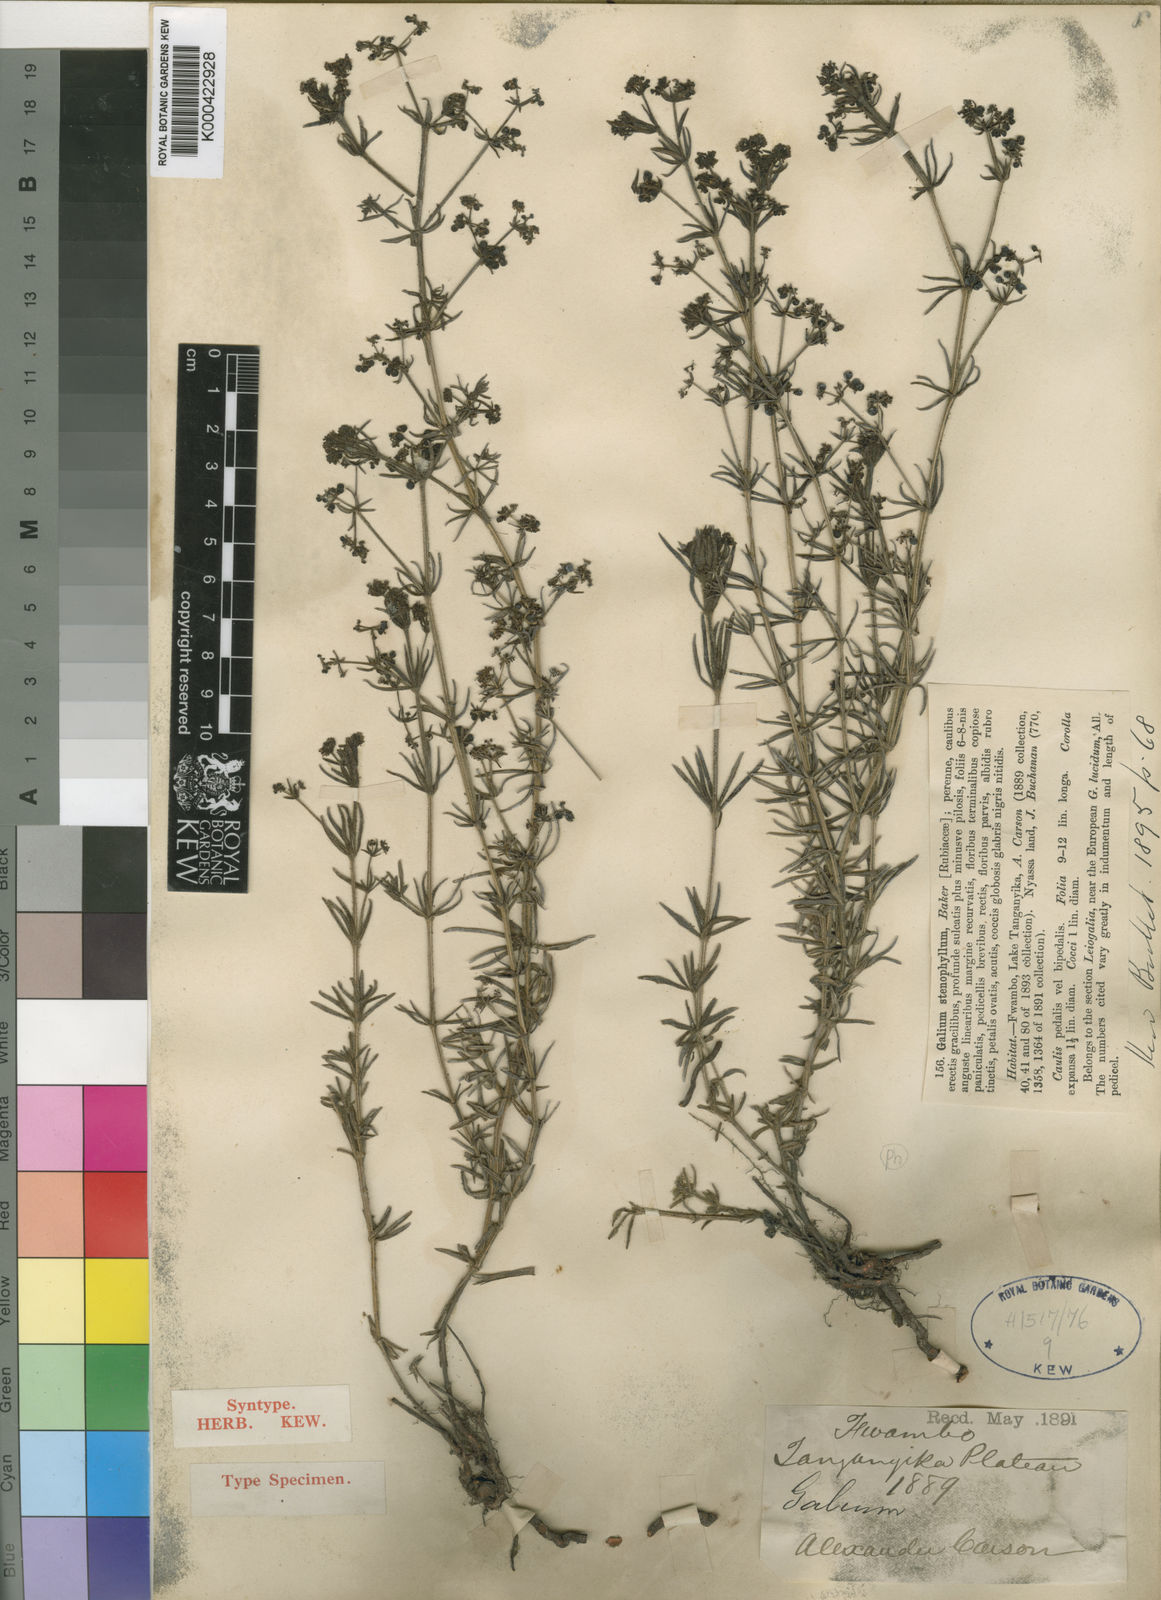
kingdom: Plantae
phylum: Tracheophyta
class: Magnoliopsida
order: Gentianales
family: Rubiaceae
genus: Galium
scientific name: Galium stenophyllum
